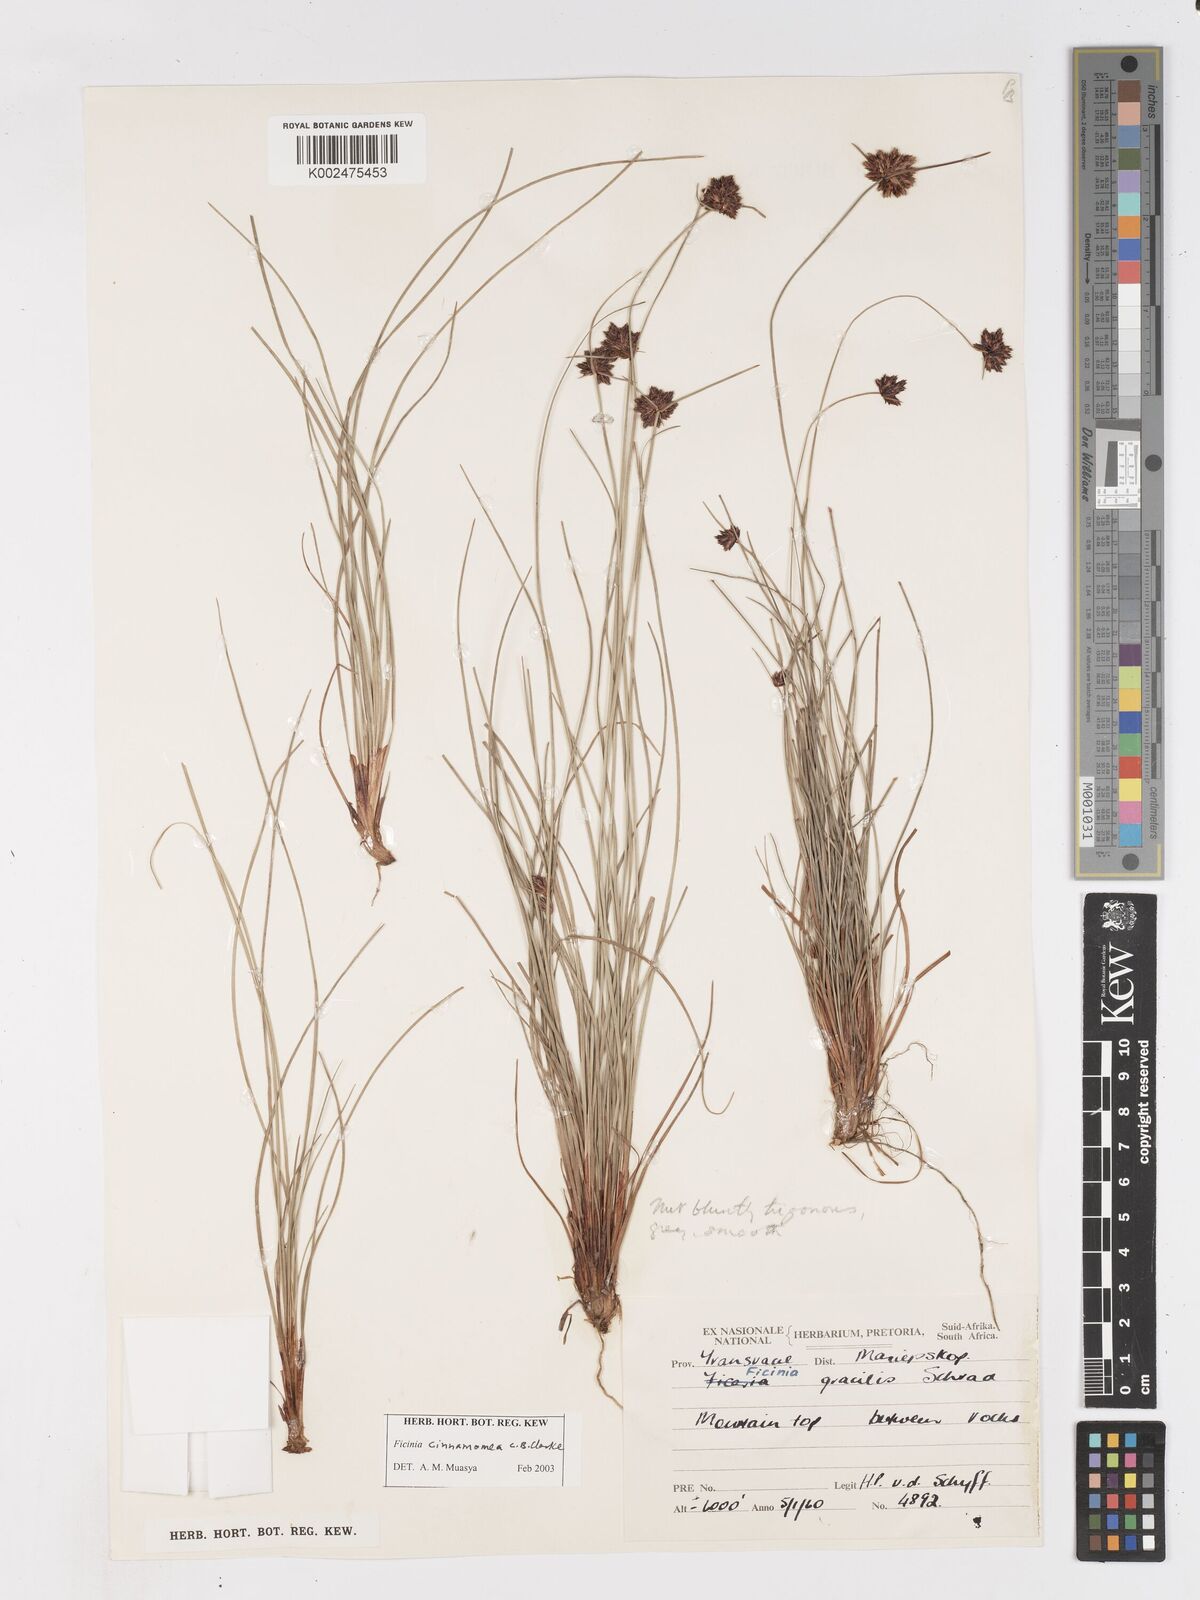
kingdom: Plantae
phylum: Tracheophyta
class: Liliopsida
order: Poales
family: Cyperaceae
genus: Ficinia
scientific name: Ficinia gracilis
